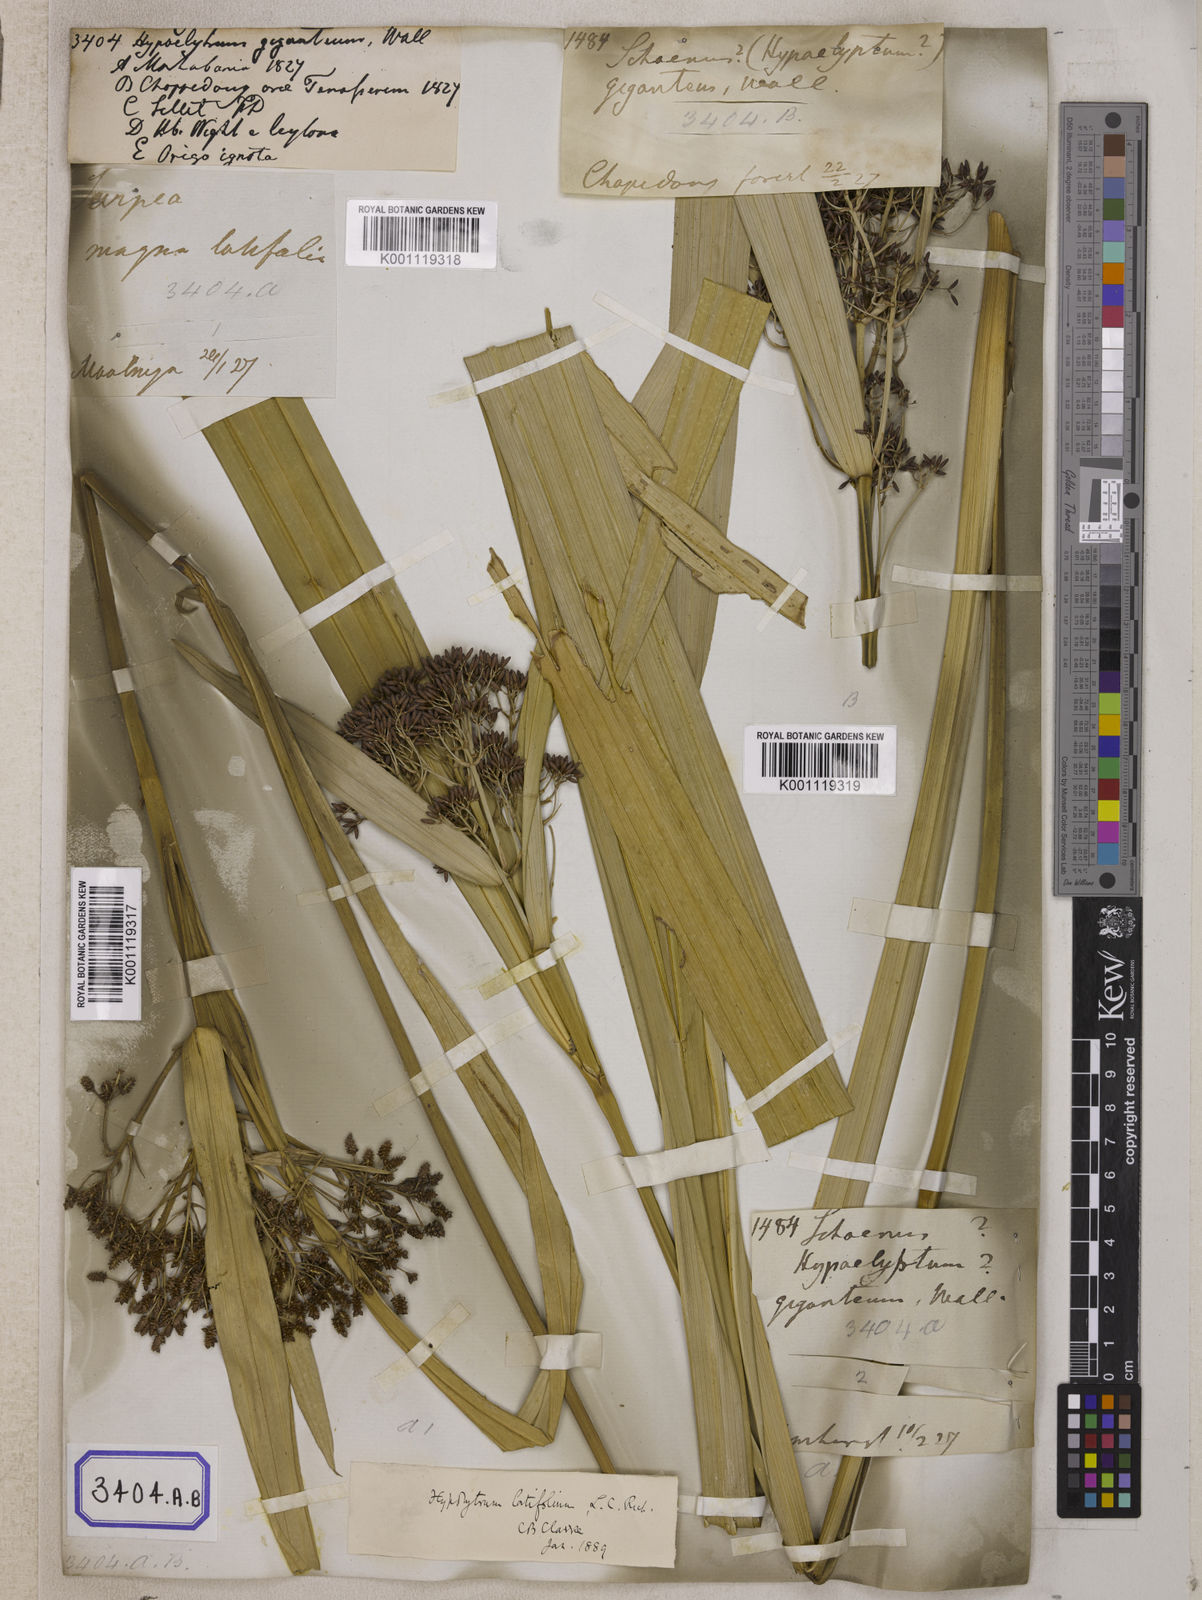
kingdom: Plantae
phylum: Tracheophyta
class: Liliopsida
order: Poales
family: Cyperaceae
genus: Hypolytrum
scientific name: Hypolytrum
